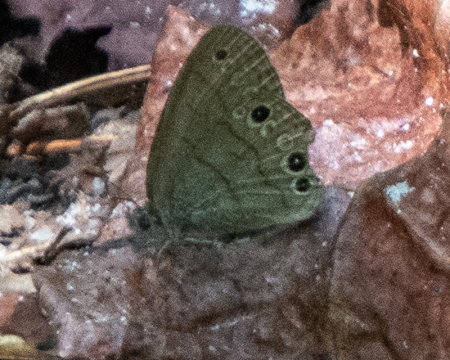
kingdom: Animalia
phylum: Arthropoda
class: Insecta
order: Lepidoptera
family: Nymphalidae
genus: Hermeuptychia
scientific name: Hermeuptychia hermes
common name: Carolina Satyr
